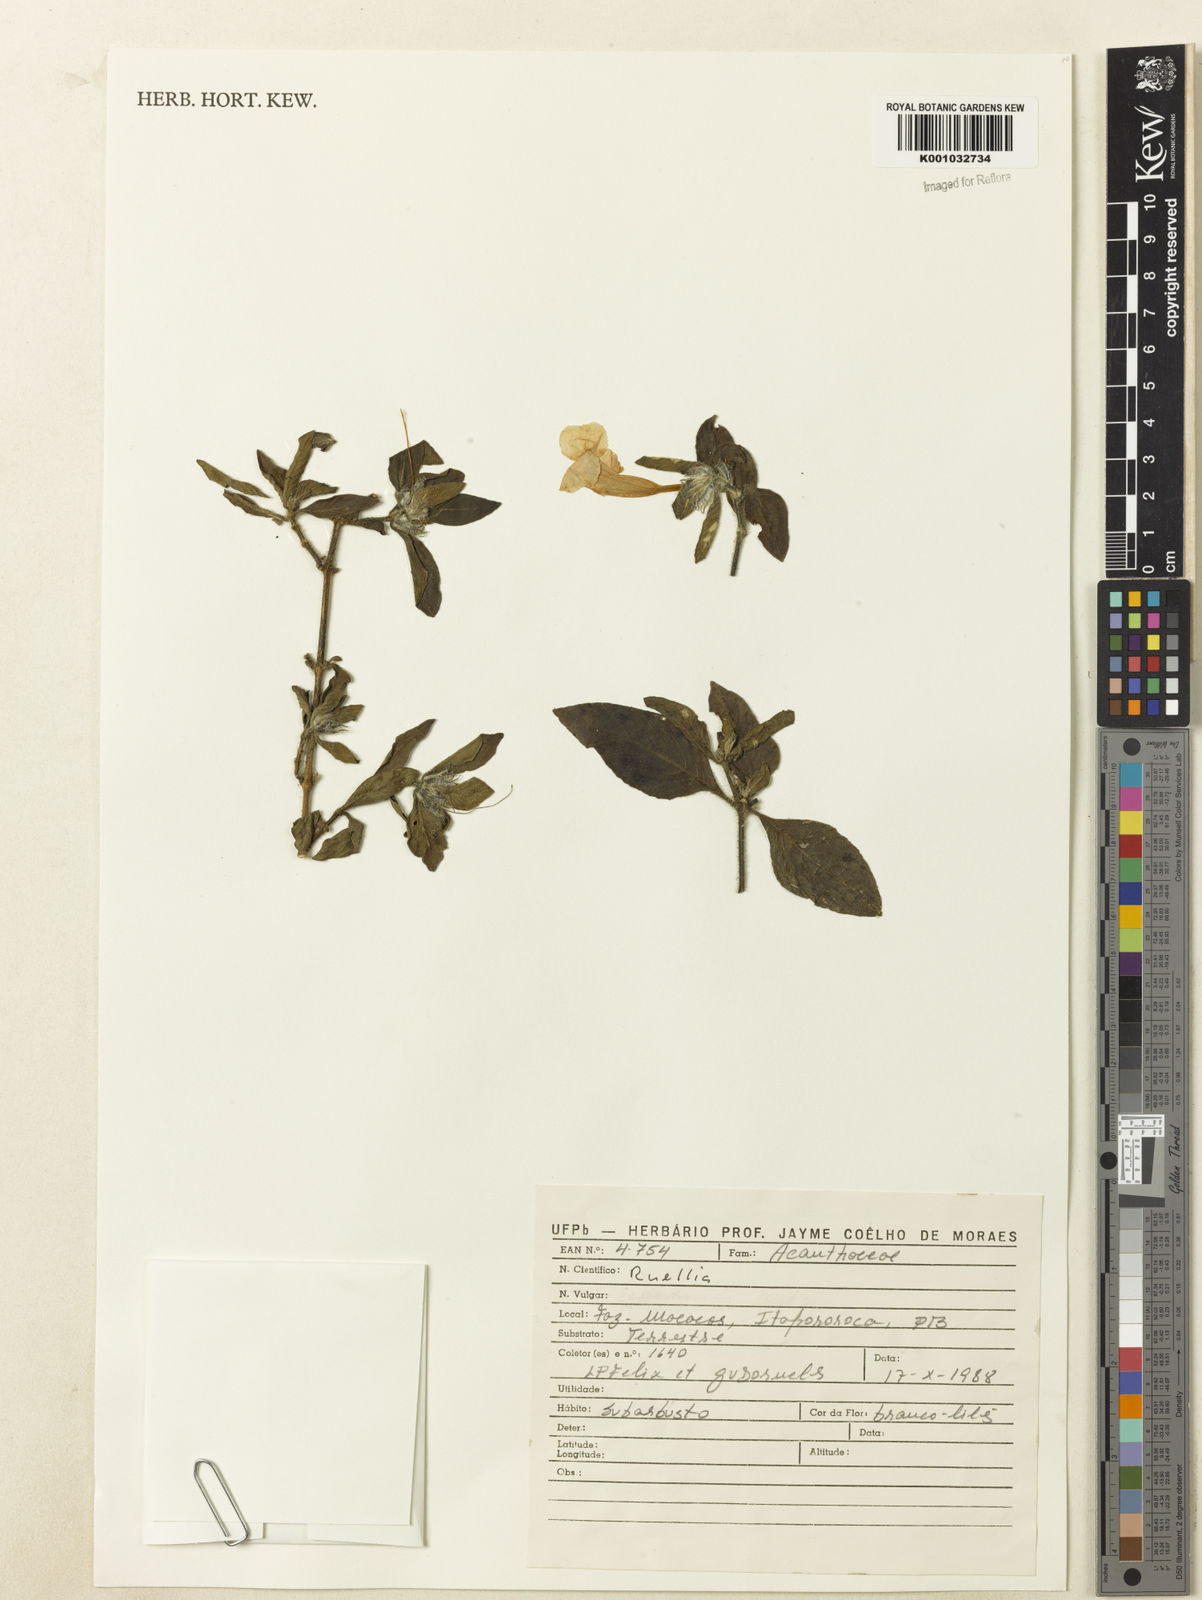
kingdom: Plantae
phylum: Tracheophyta
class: Magnoliopsida
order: Lamiales
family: Acanthaceae
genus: Ruellia
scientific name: Ruellia
